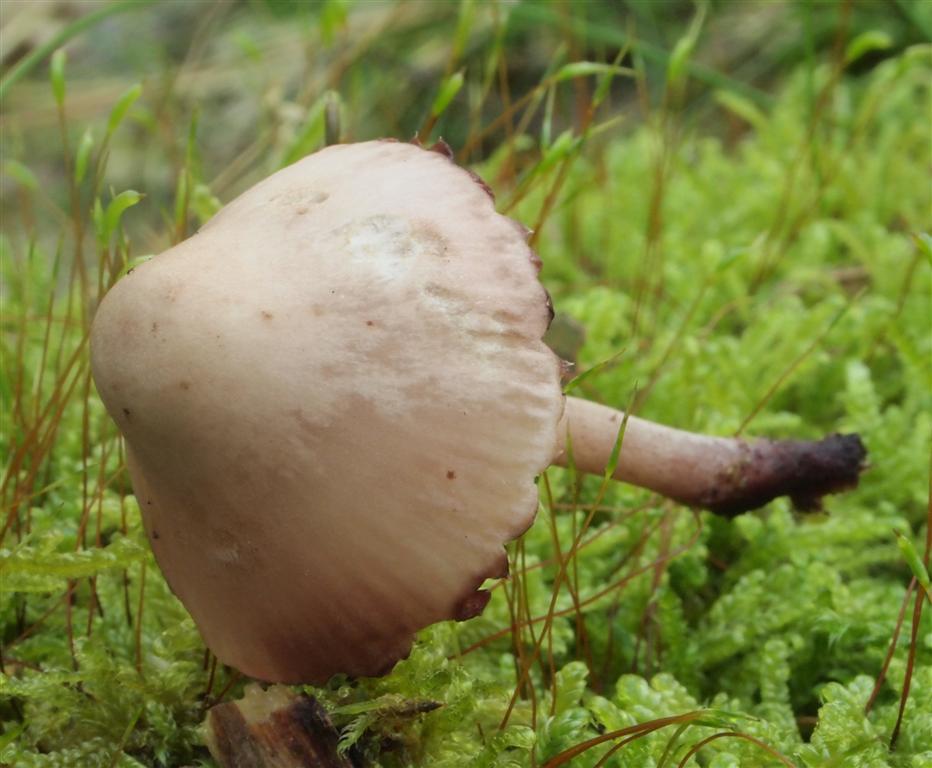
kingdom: Fungi
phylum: Basidiomycota
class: Agaricomycetes
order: Agaricales
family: Mycenaceae
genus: Mycena
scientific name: Mycena haematopus
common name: blødende huesvamp
